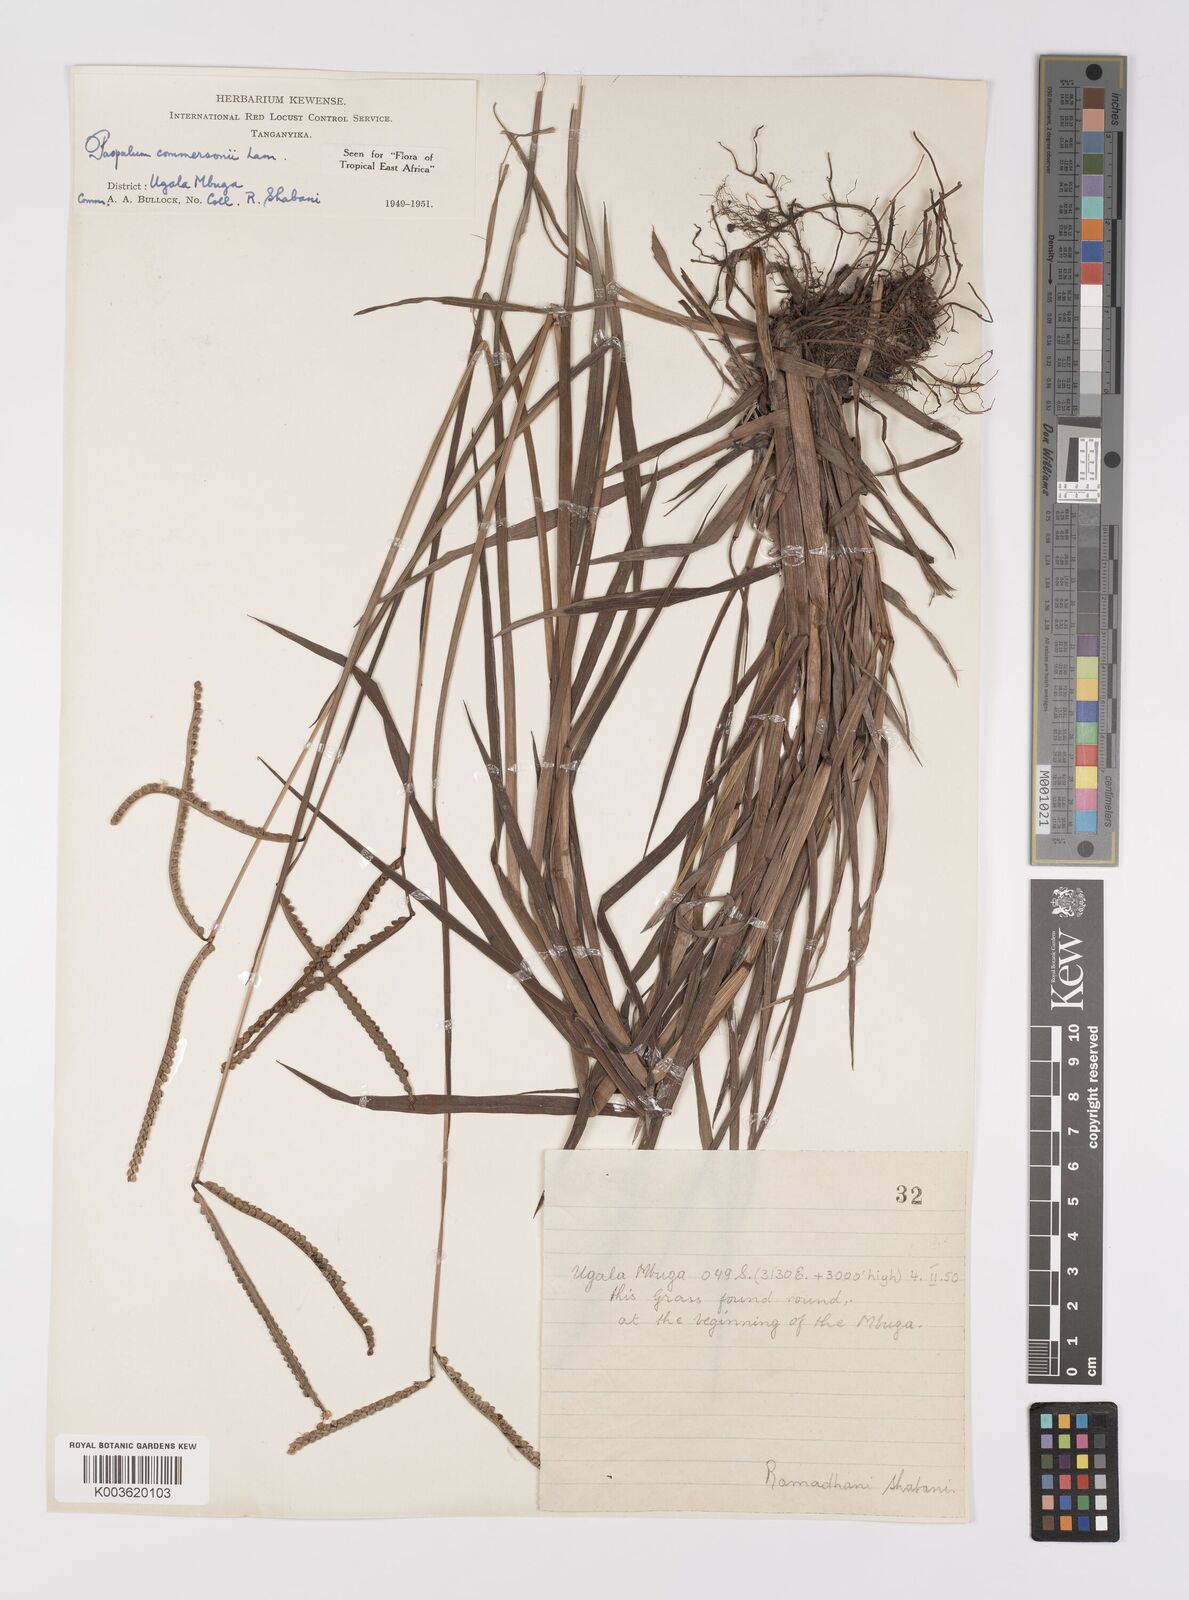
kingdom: Plantae
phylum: Tracheophyta
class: Liliopsida
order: Poales
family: Poaceae
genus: Paspalum
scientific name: Paspalum scrobiculatum
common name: Kodo millet
